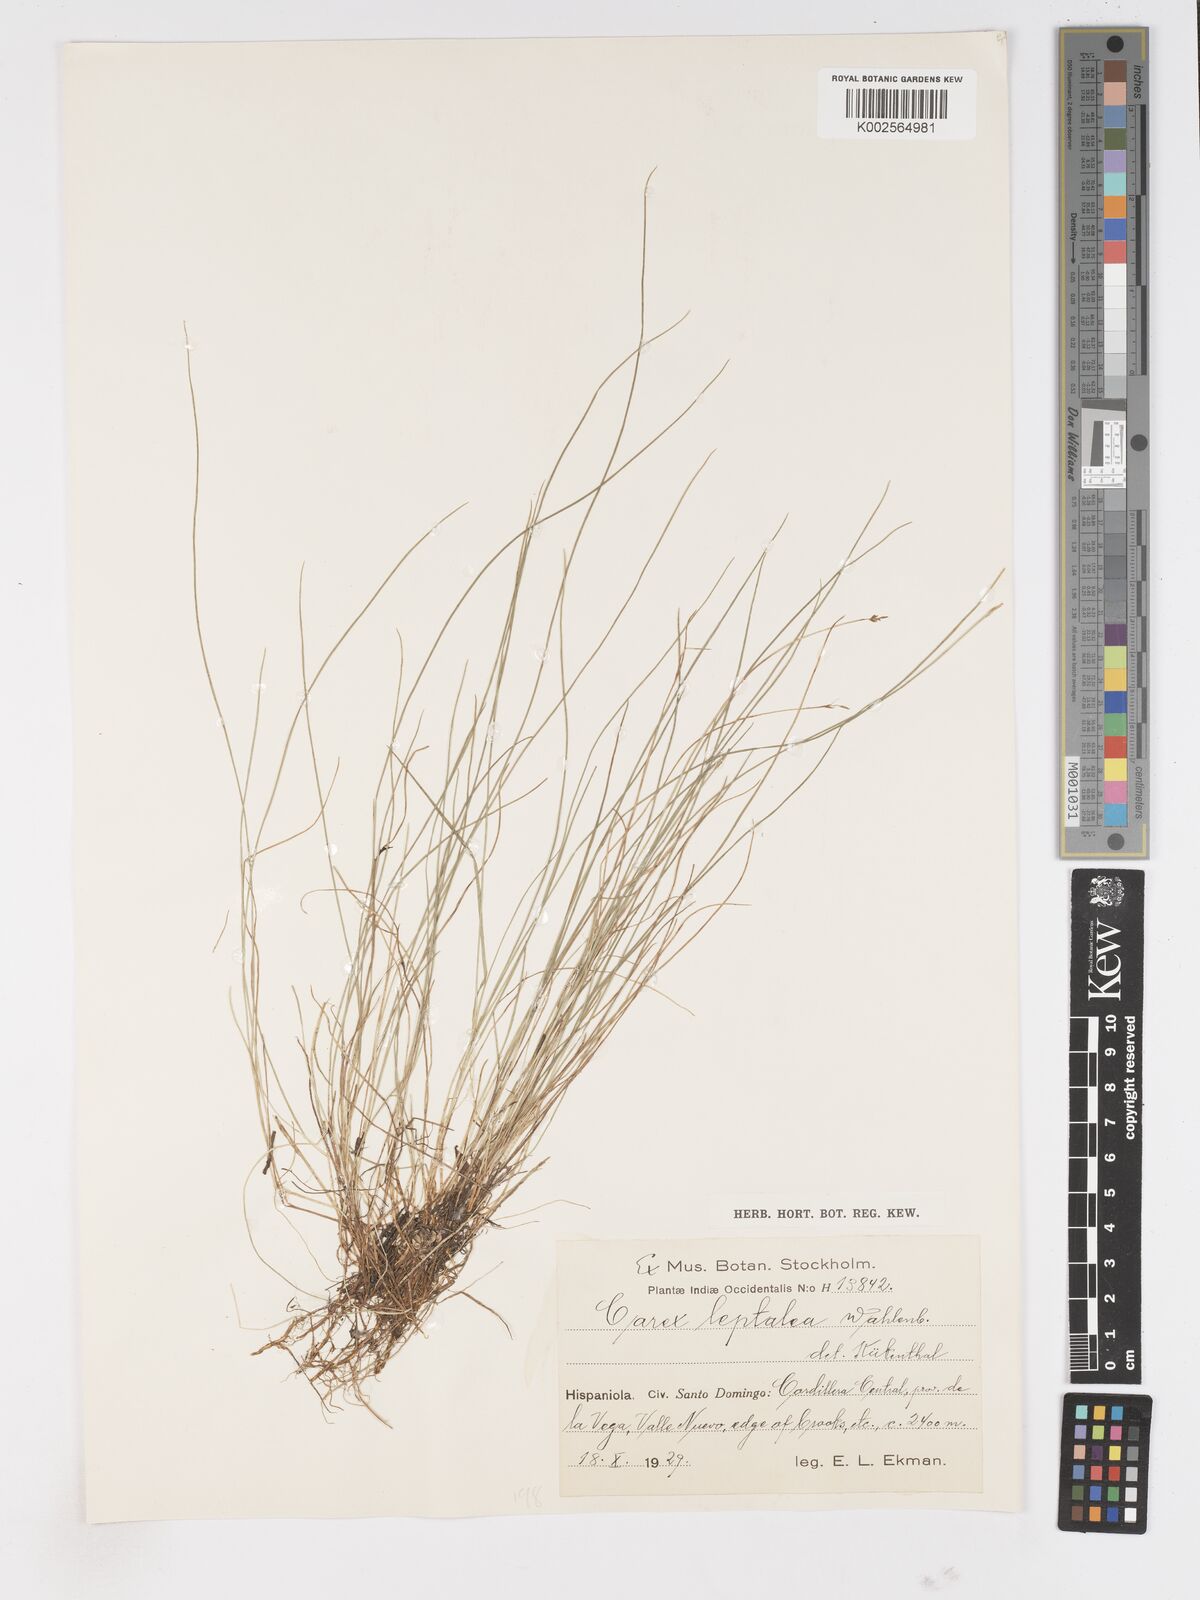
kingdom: Plantae
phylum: Tracheophyta
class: Liliopsida
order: Poales
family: Cyperaceae
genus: Carex
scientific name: Carex leptalea
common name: Bristly-stalked sedge
